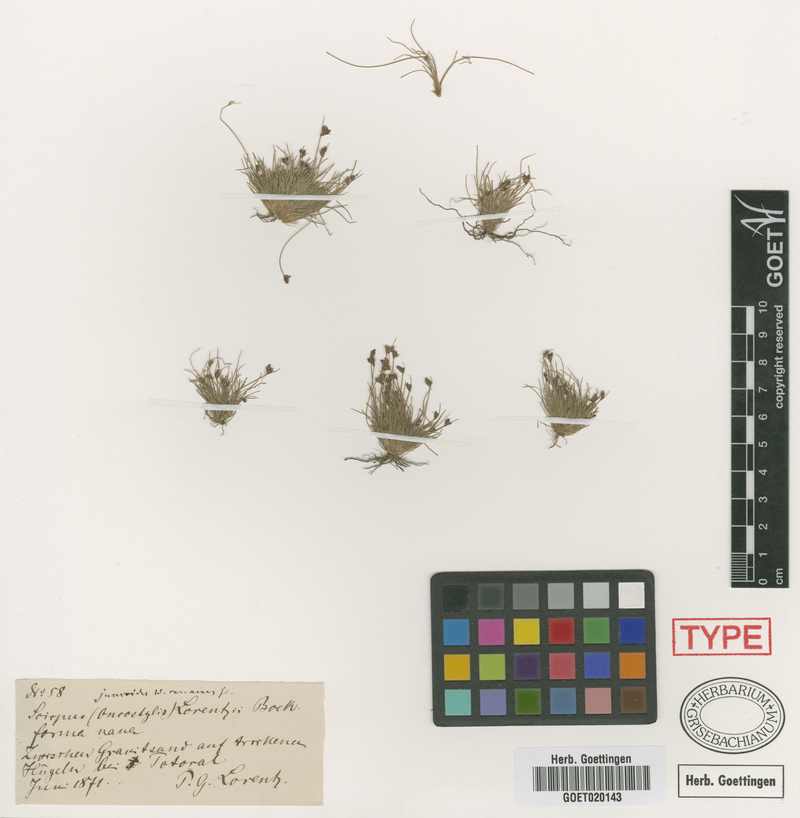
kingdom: Plantae
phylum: Tracheophyta
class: Liliopsida
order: Poales
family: Cyperaceae
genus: Bulbostylis
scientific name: Bulbostylis juncoides
